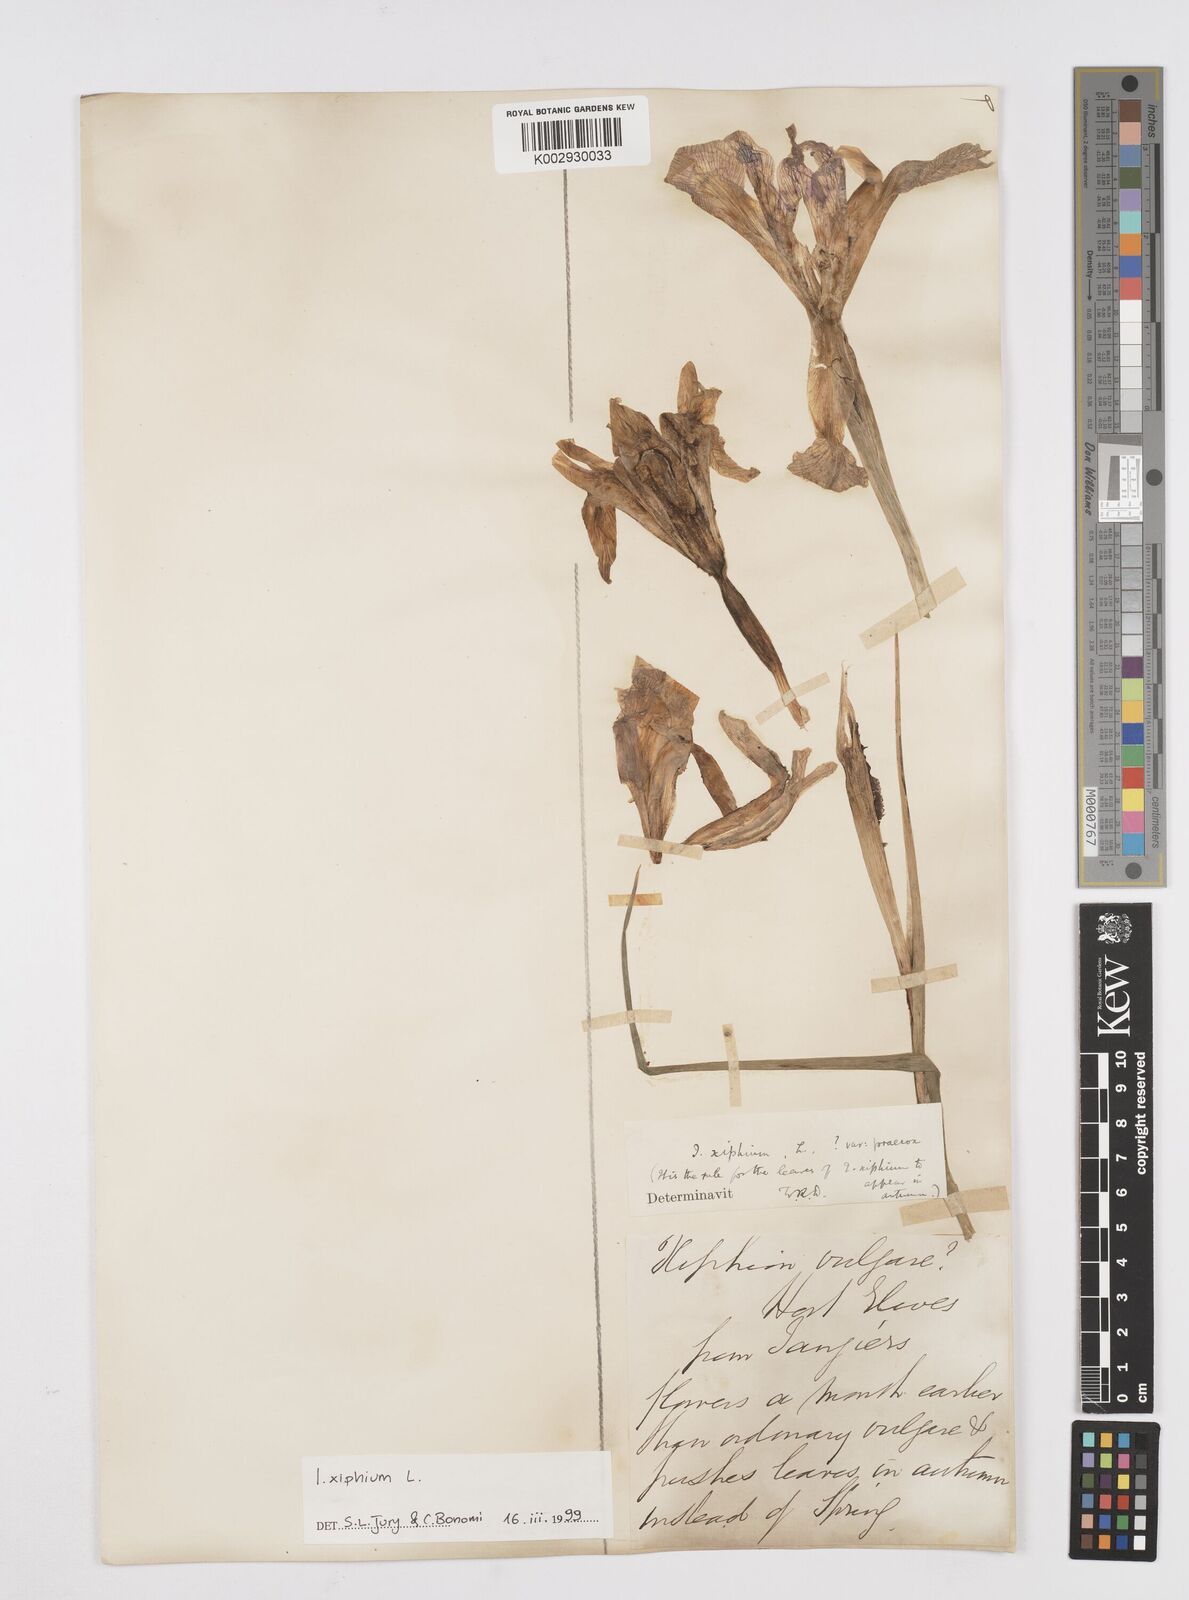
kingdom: Plantae
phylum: Tracheophyta
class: Liliopsida
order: Asparagales
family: Iridaceae
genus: Iris
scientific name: Iris xiphium
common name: Spanish iris
